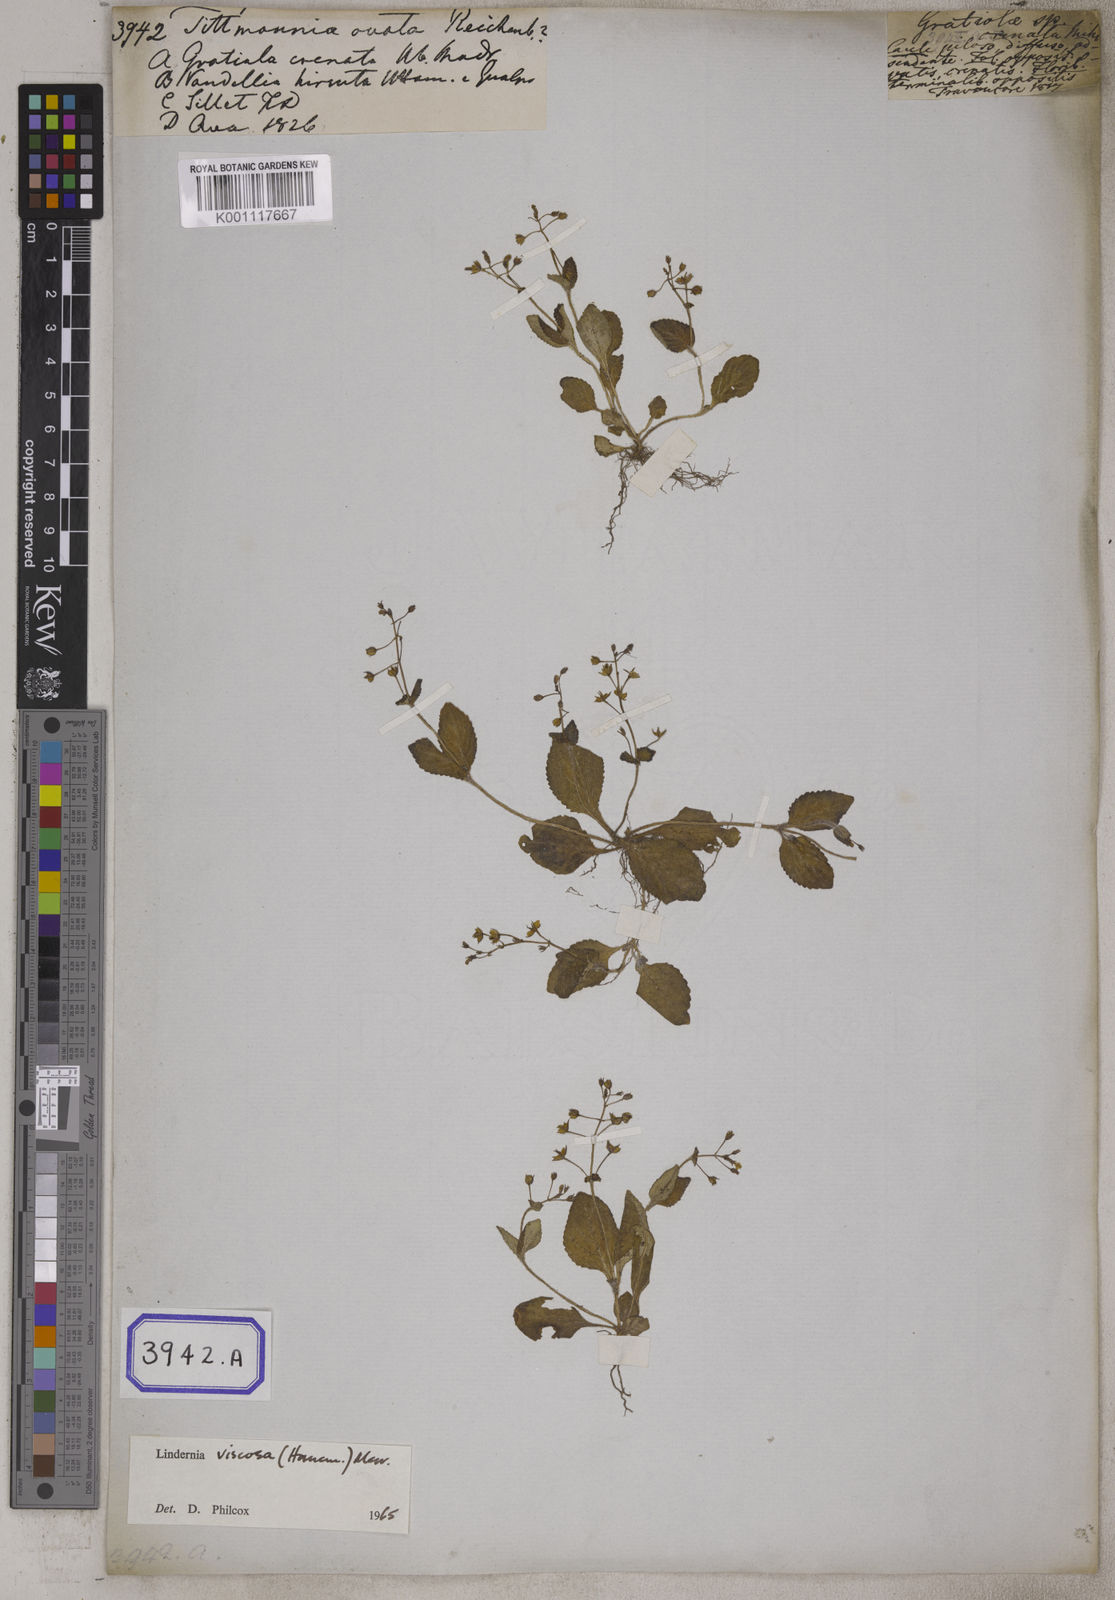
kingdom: Plantae
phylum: Tracheophyta
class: Magnoliopsida
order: Lamiales
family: Linderniaceae
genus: Yamazakia
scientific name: Yamazakia viscosa
